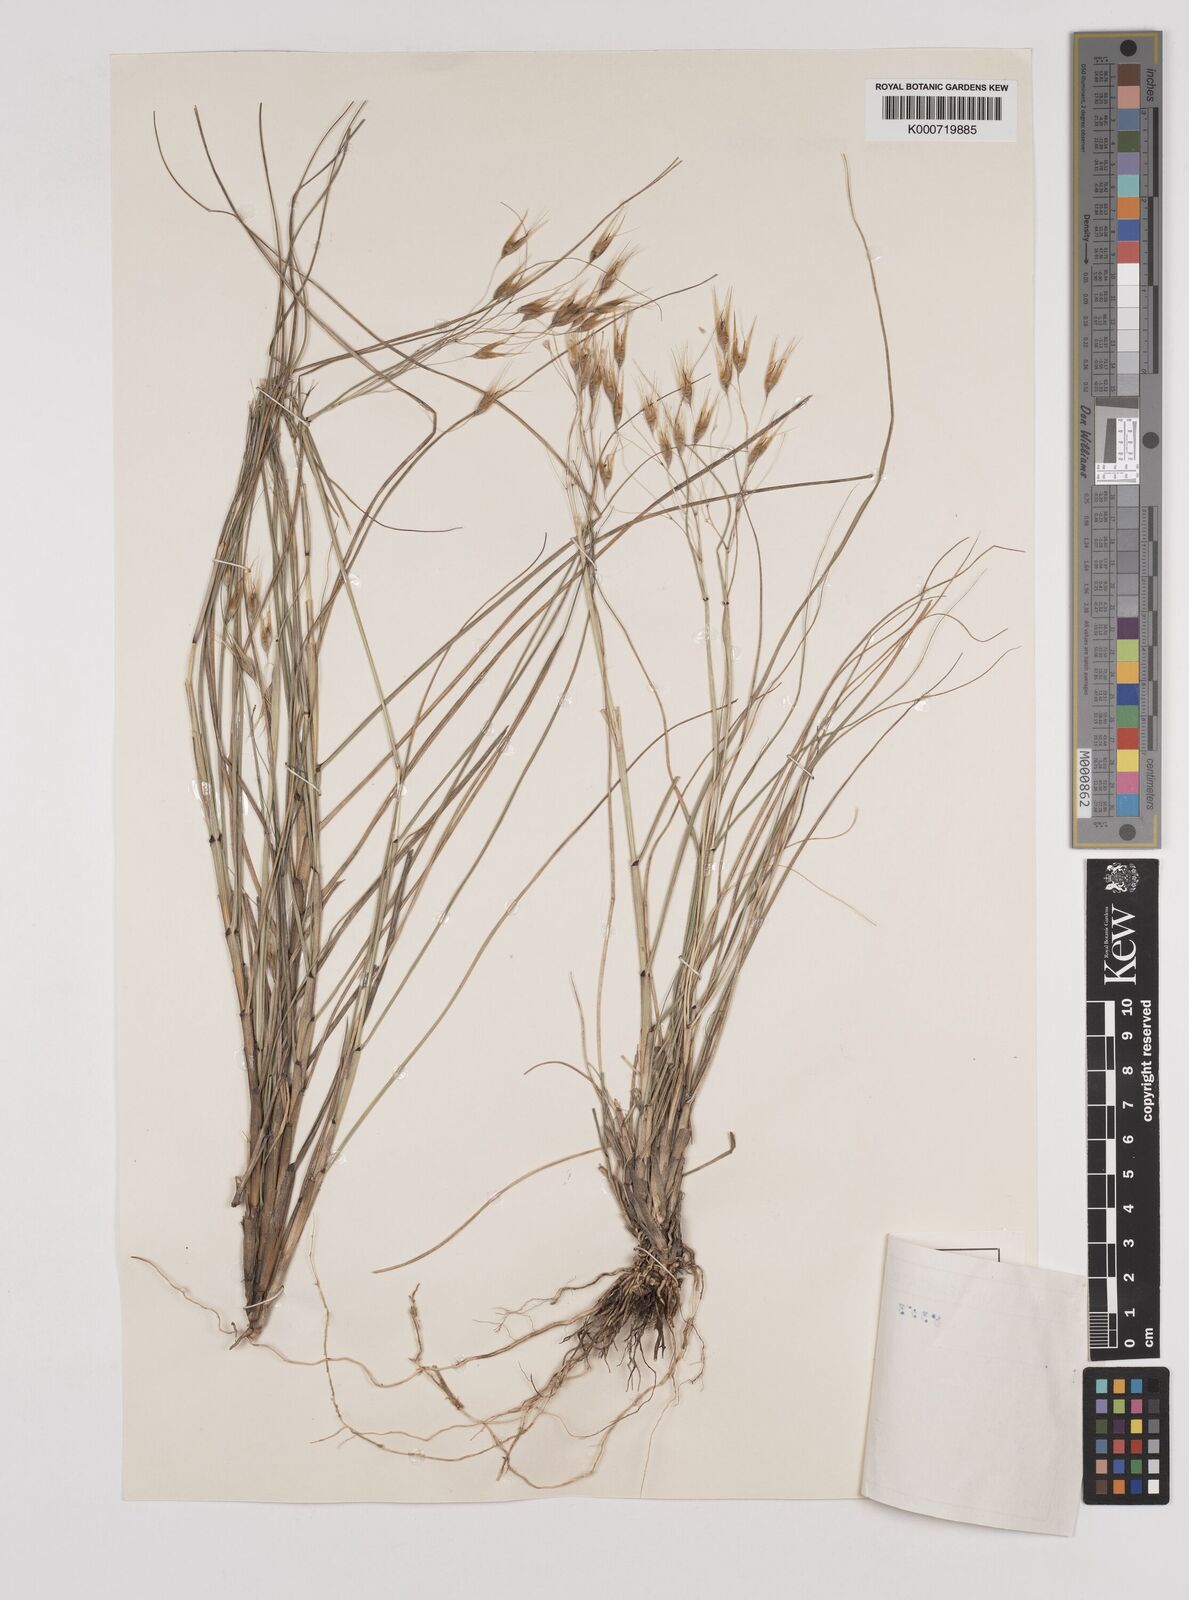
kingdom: Plantae
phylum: Tracheophyta
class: Liliopsida
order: Poales
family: Poaceae
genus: Pentameris
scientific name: Pentameris thuarii
